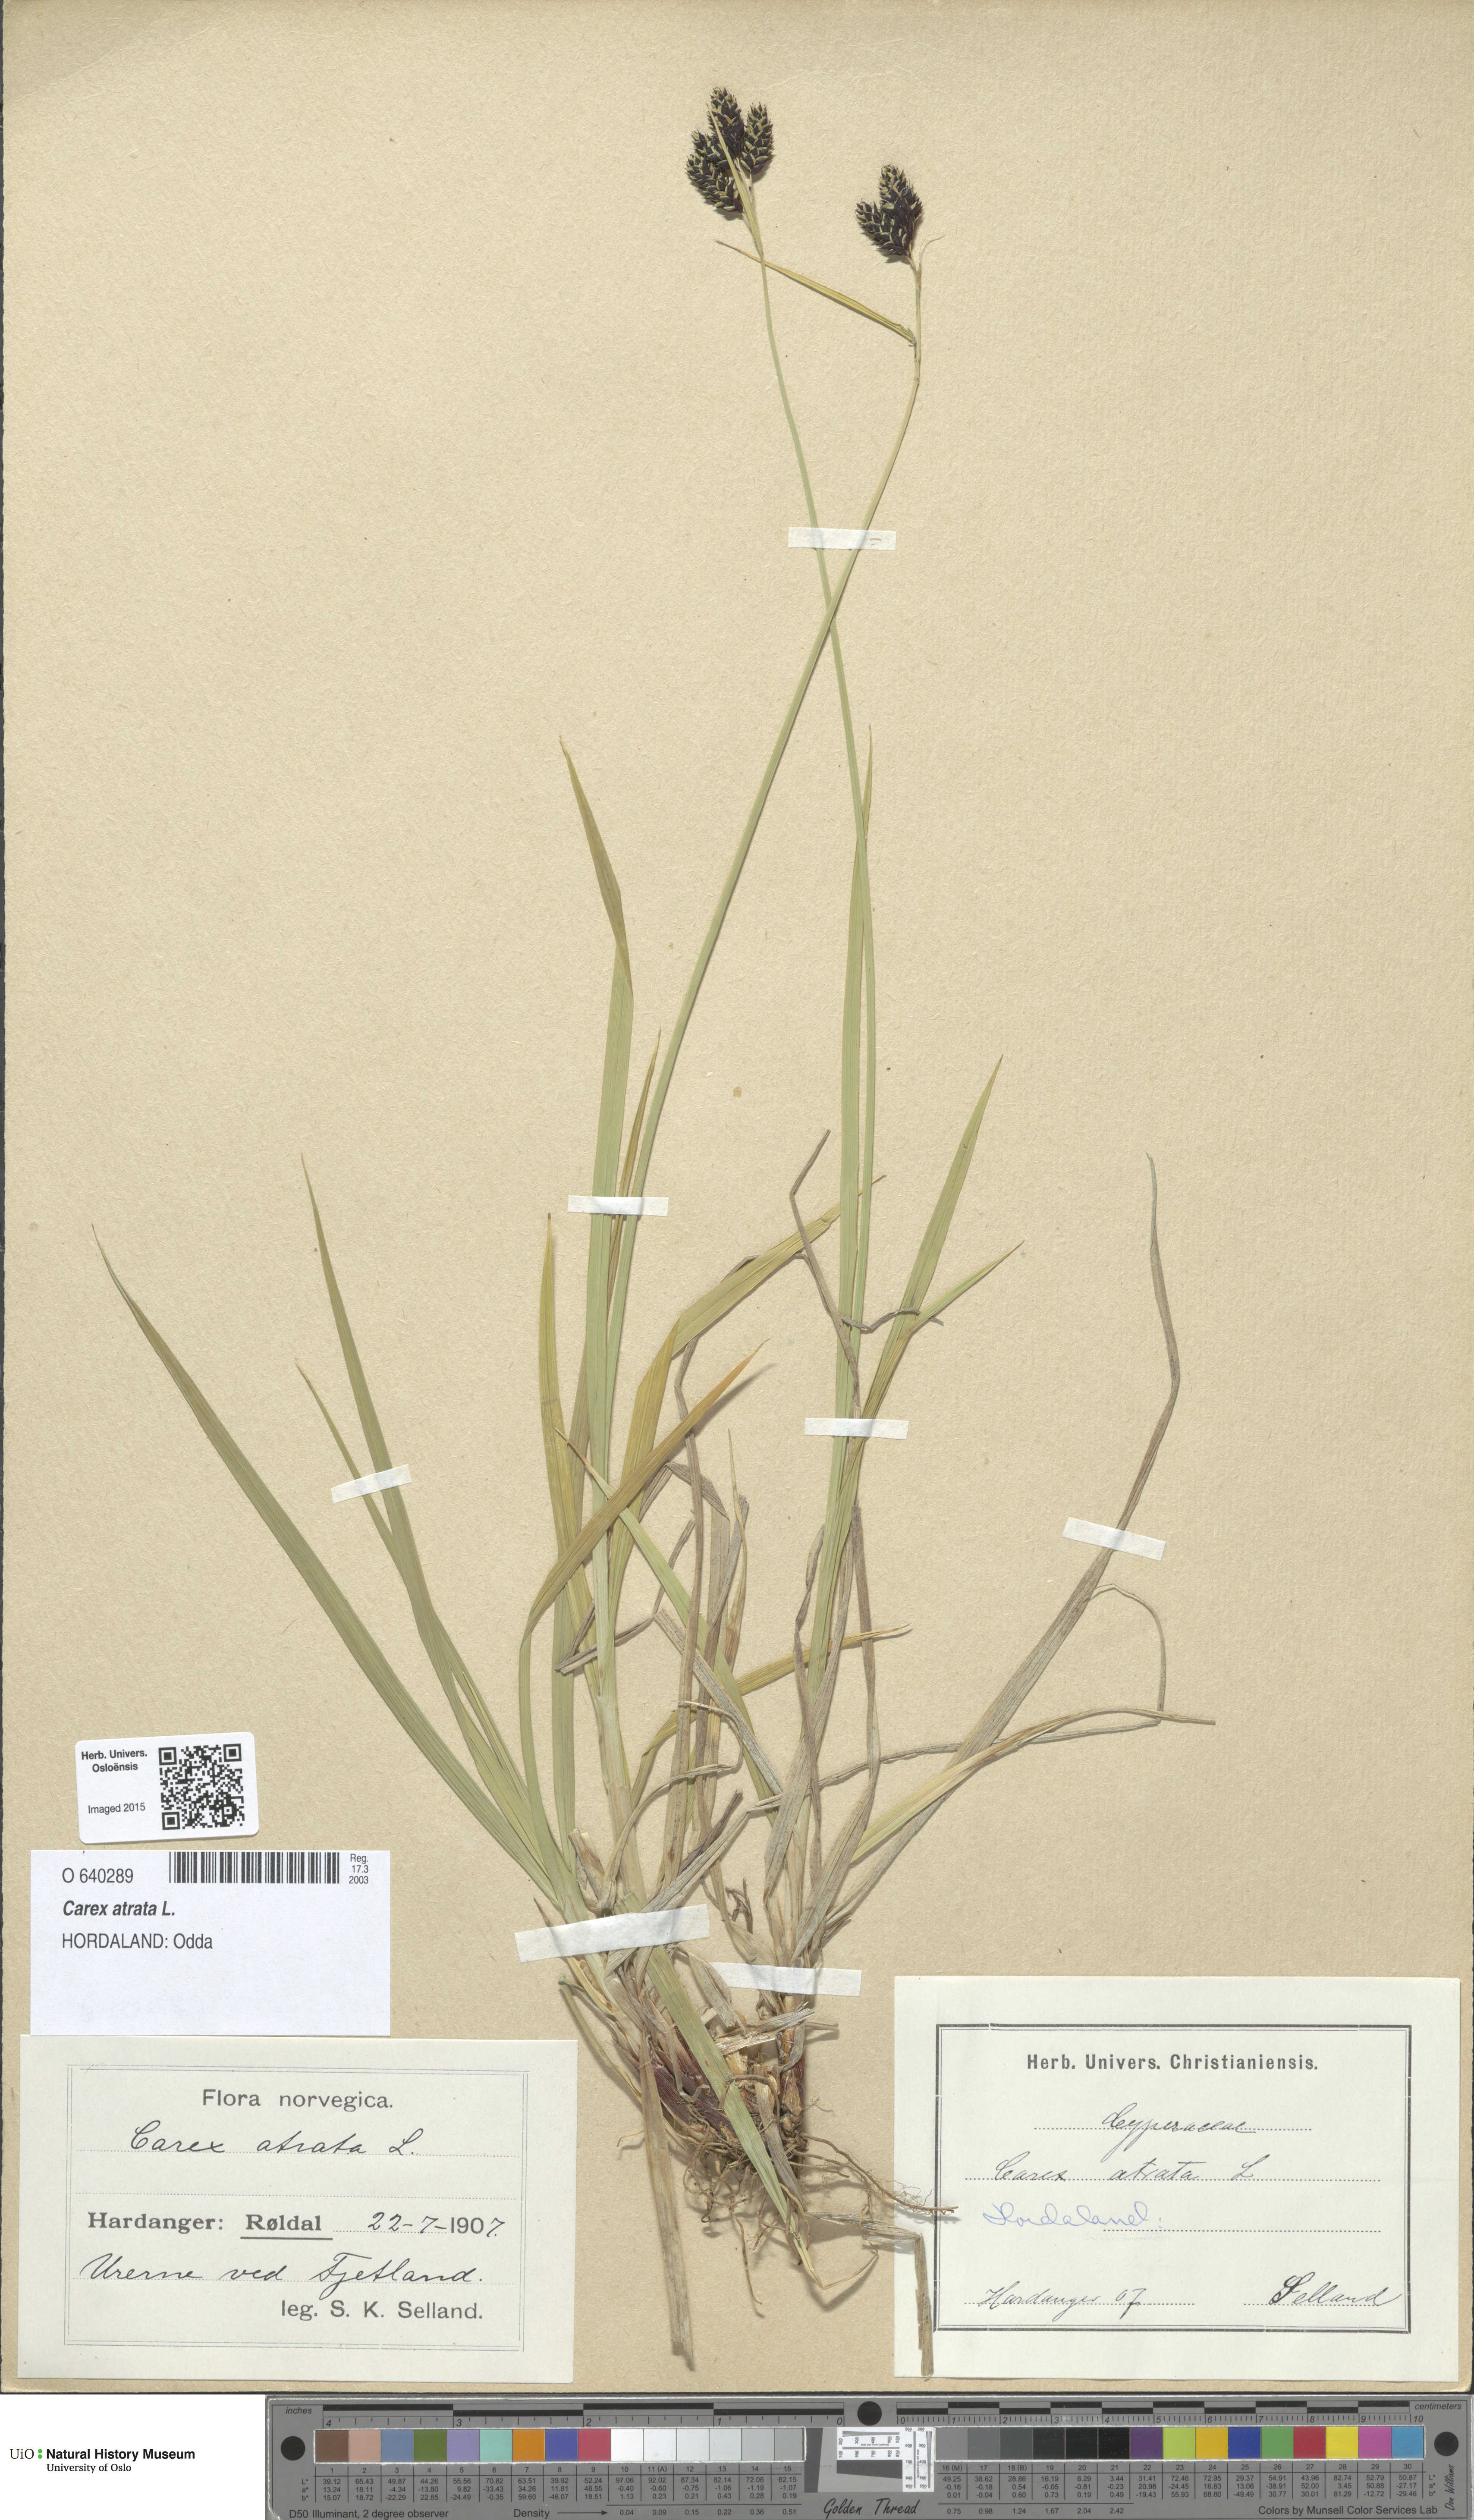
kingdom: Plantae
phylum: Tracheophyta
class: Liliopsida
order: Poales
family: Cyperaceae
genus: Carex
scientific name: Carex atrata
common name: Black alpine sedge
